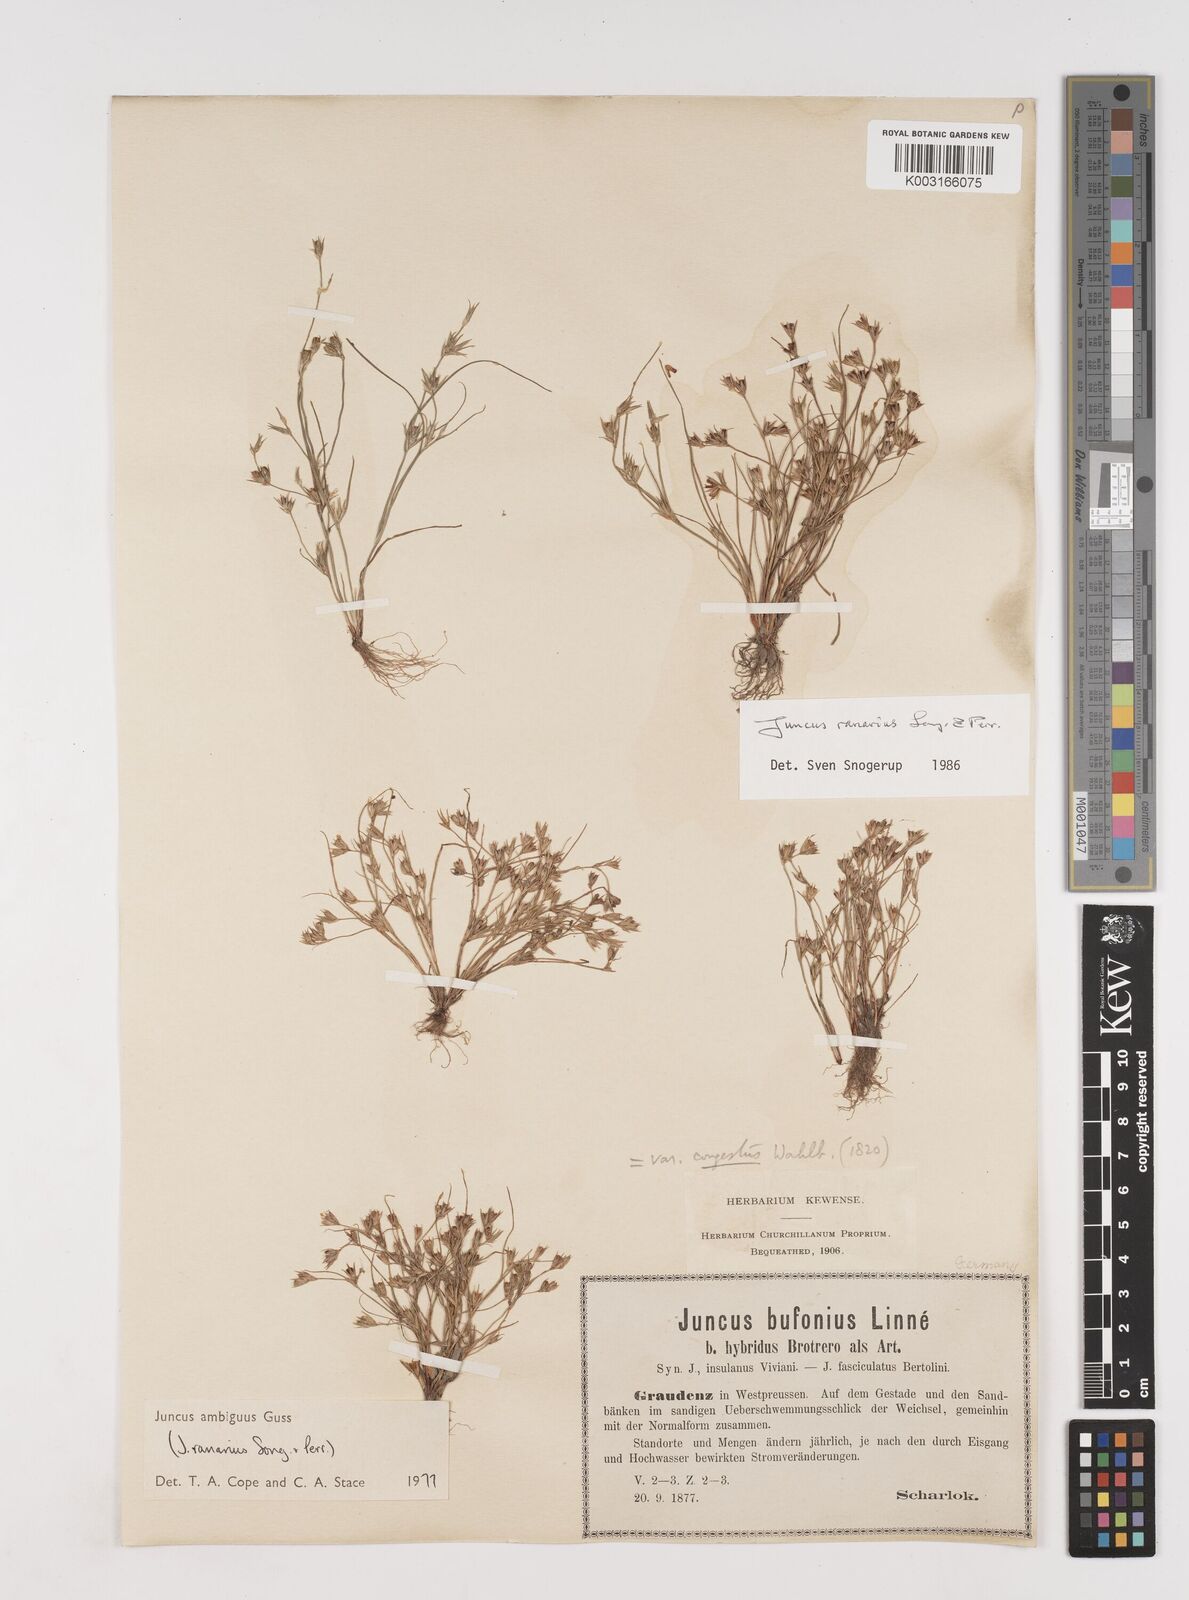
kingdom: Plantae
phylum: Tracheophyta
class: Liliopsida
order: Poales
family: Juncaceae
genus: Juncus
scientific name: Juncus hybridus
